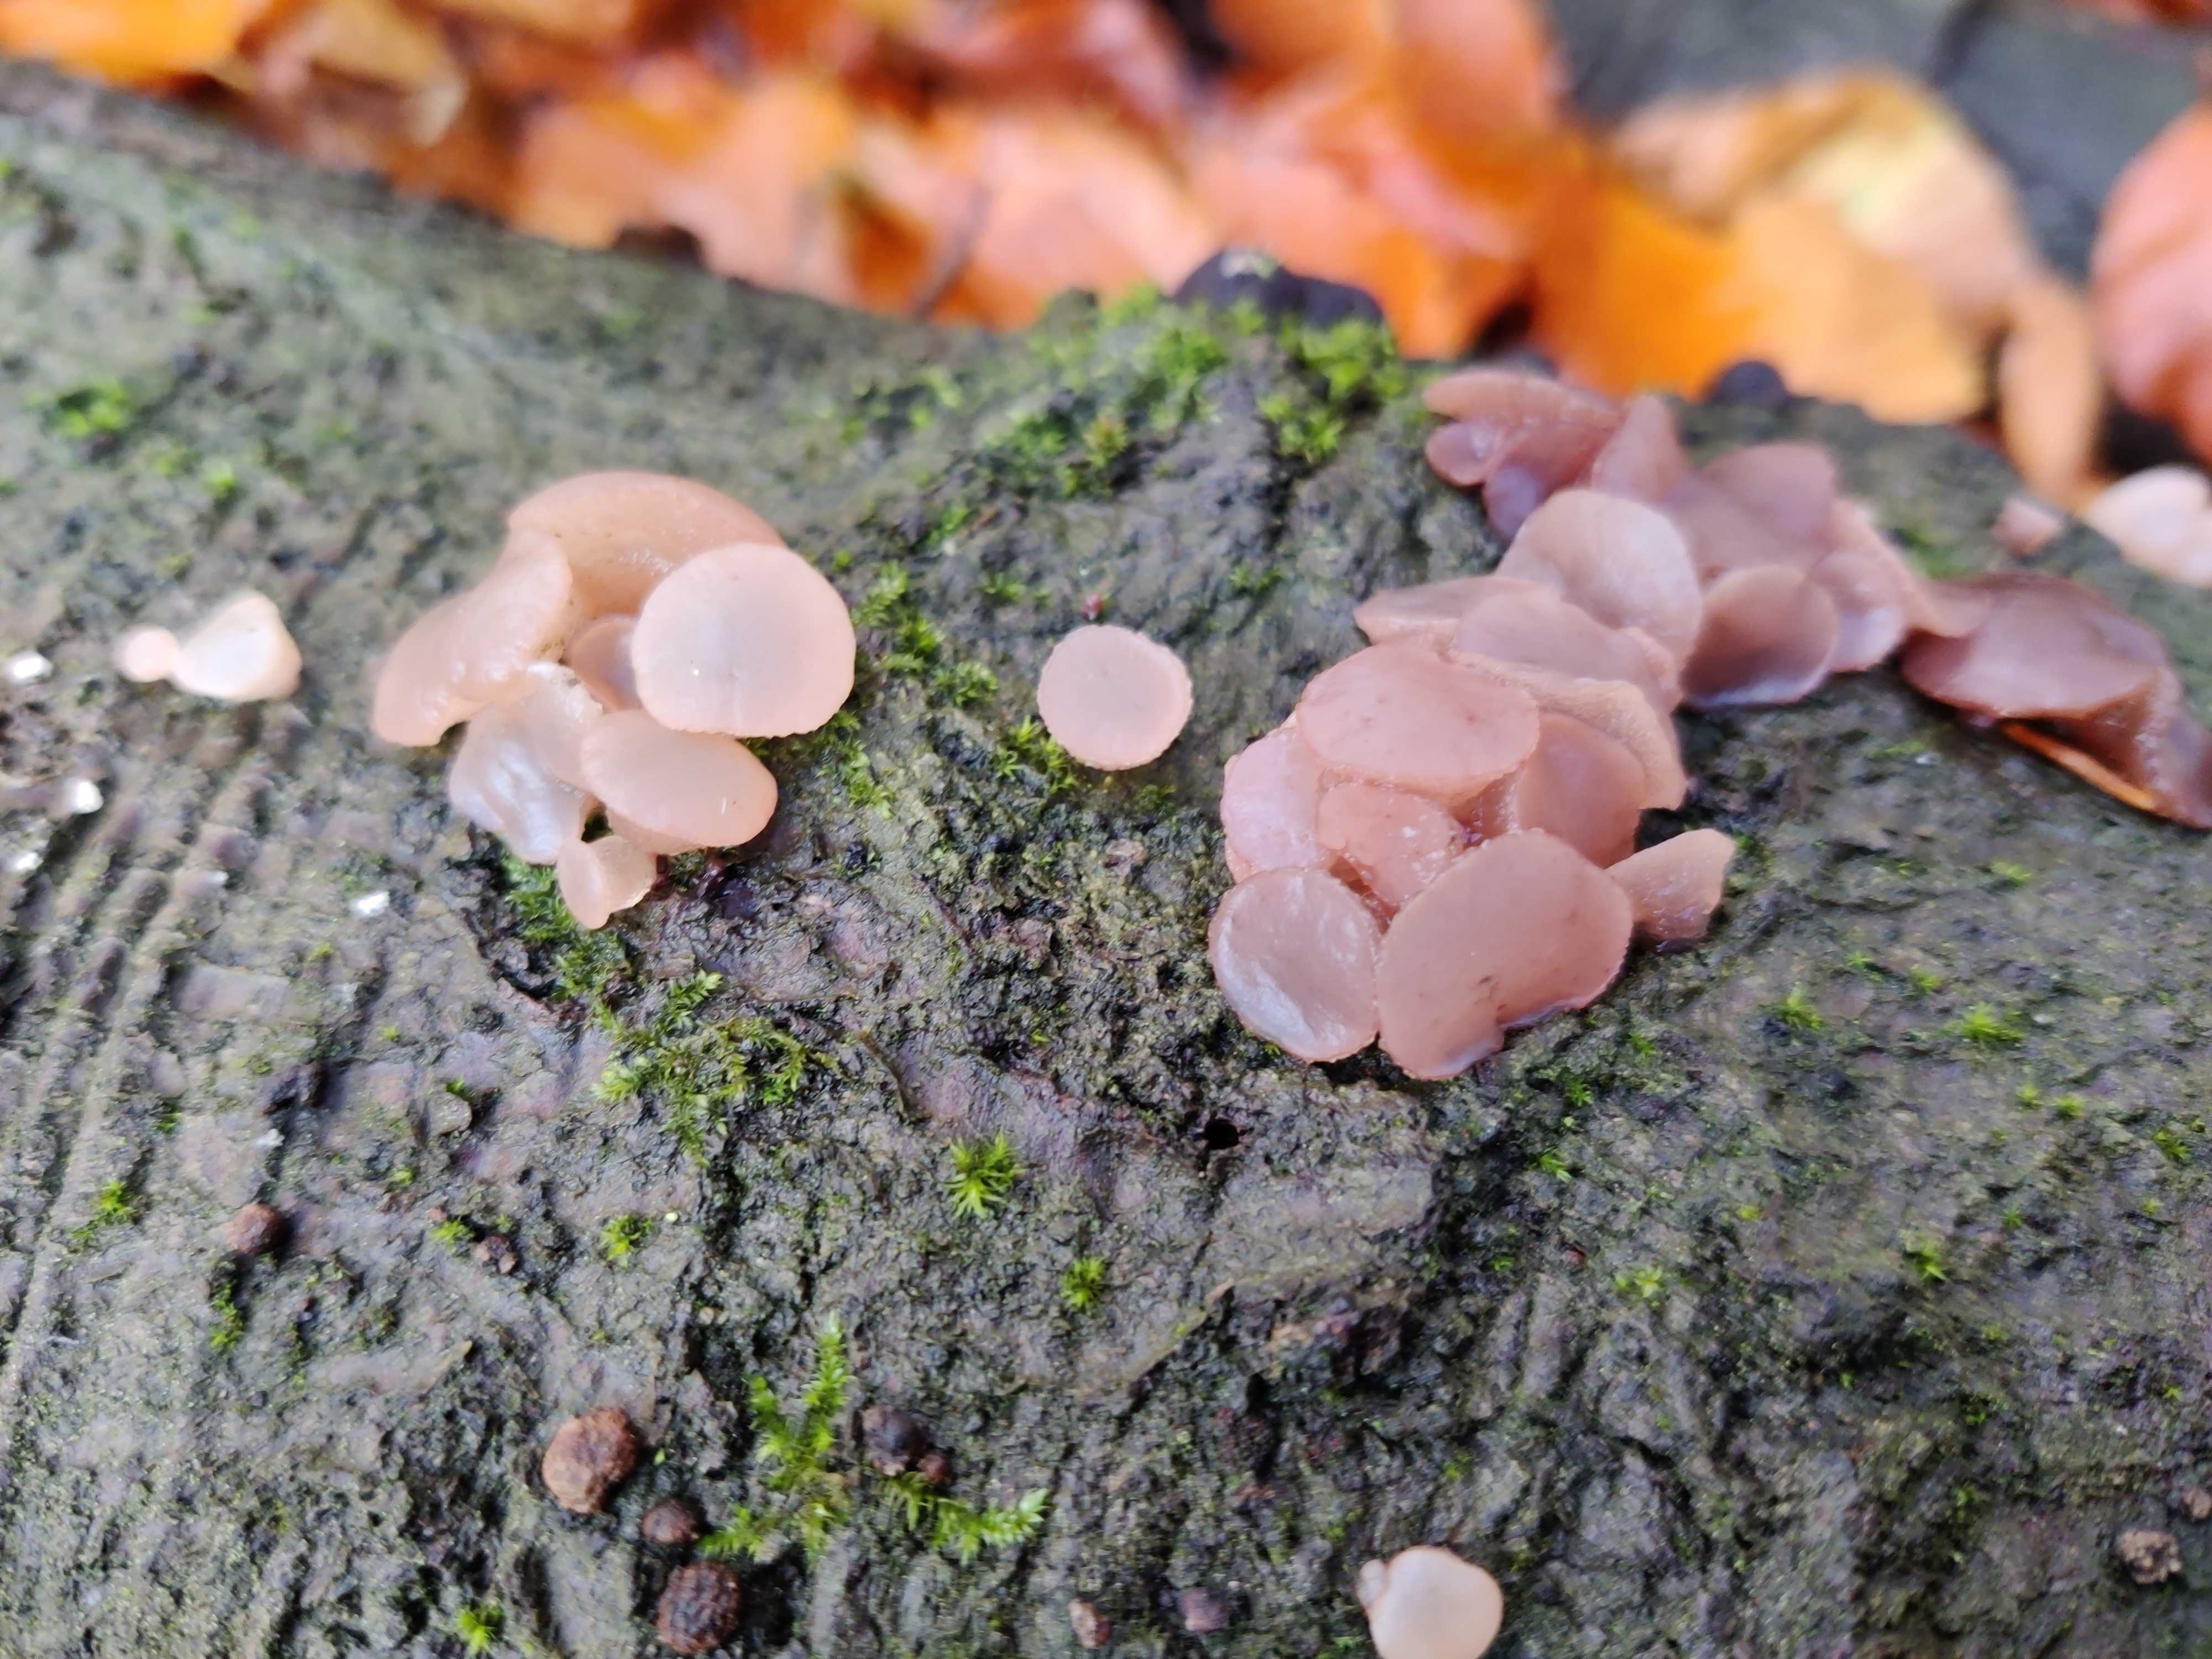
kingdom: Fungi
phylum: Ascomycota
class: Leotiomycetes
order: Helotiales
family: Gelatinodiscaceae
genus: Neobulgaria
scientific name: Neobulgaria pura
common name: bleg bævreskive
